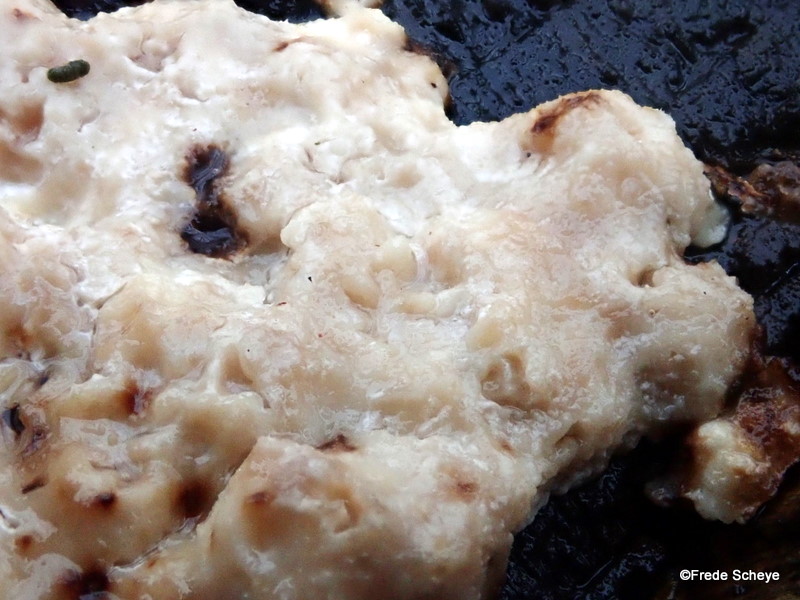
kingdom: Fungi
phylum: Basidiomycota
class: Agaricomycetes
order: Polyporales
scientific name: Polyporales
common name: poresvampordenen
